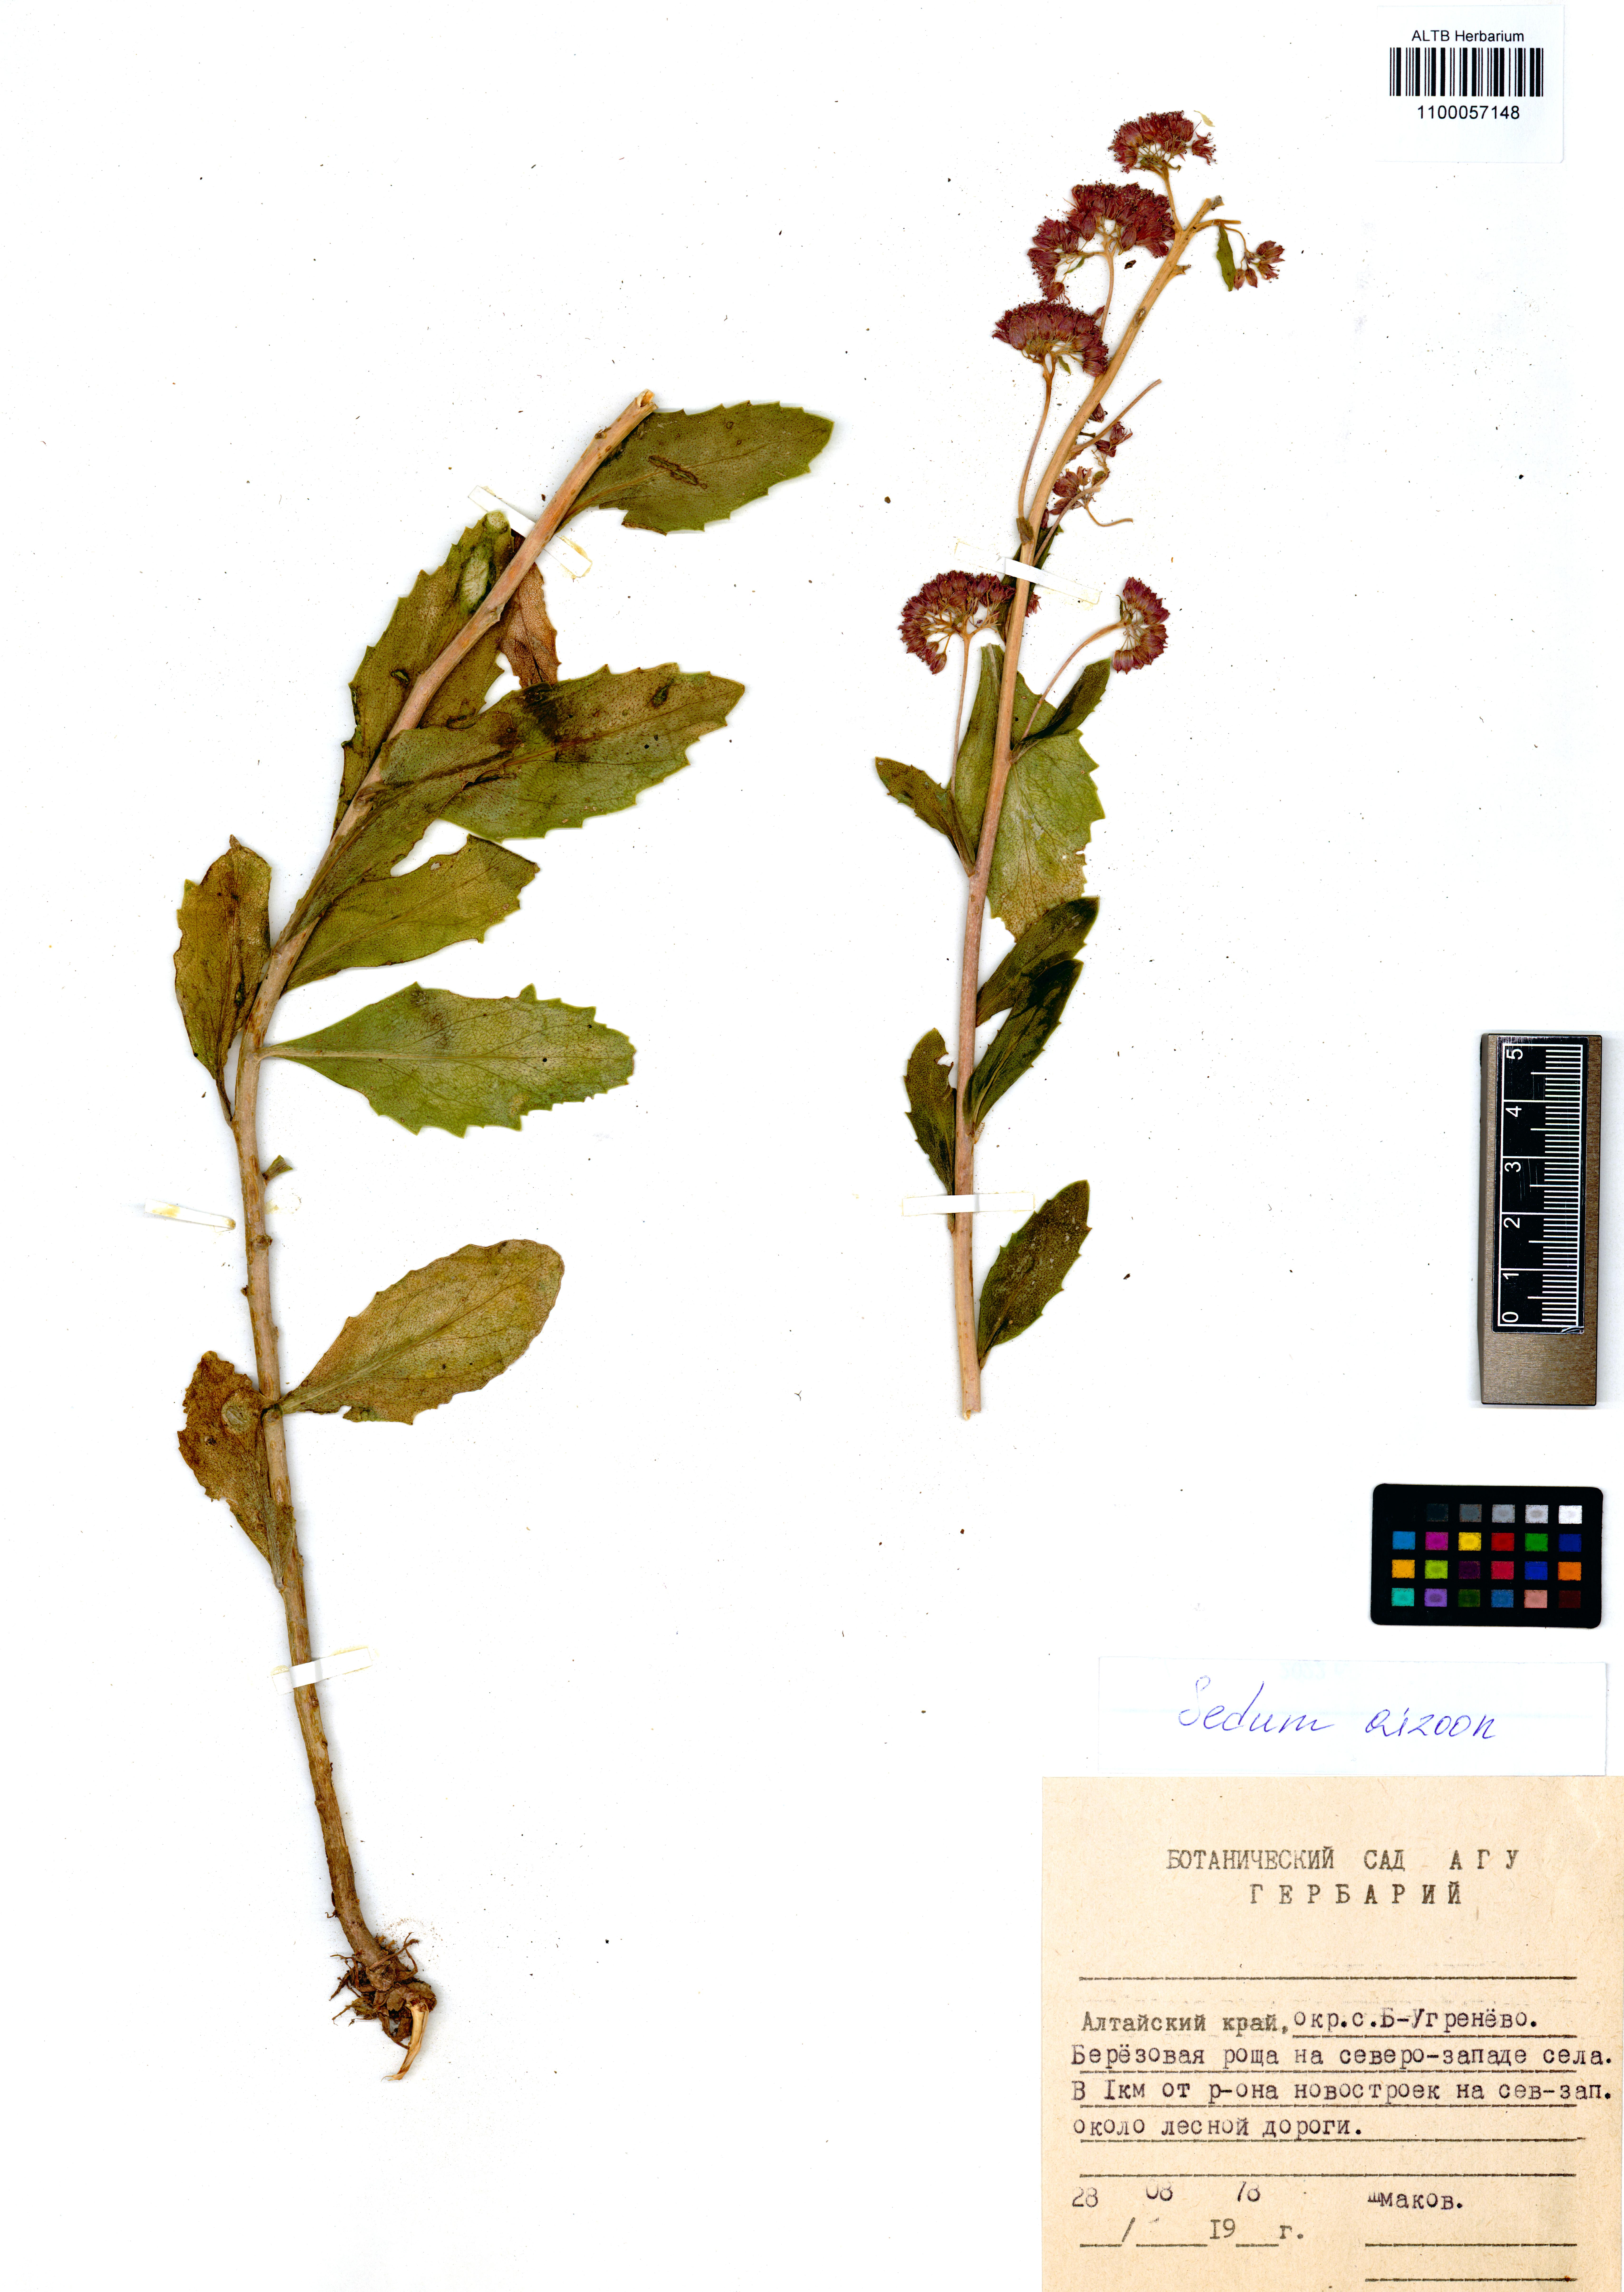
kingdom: Plantae
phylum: Tracheophyta
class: Magnoliopsida
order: Saxifragales
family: Crassulaceae
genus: Phedimus
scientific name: Phedimus aizoon
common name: Orpin aizoon
